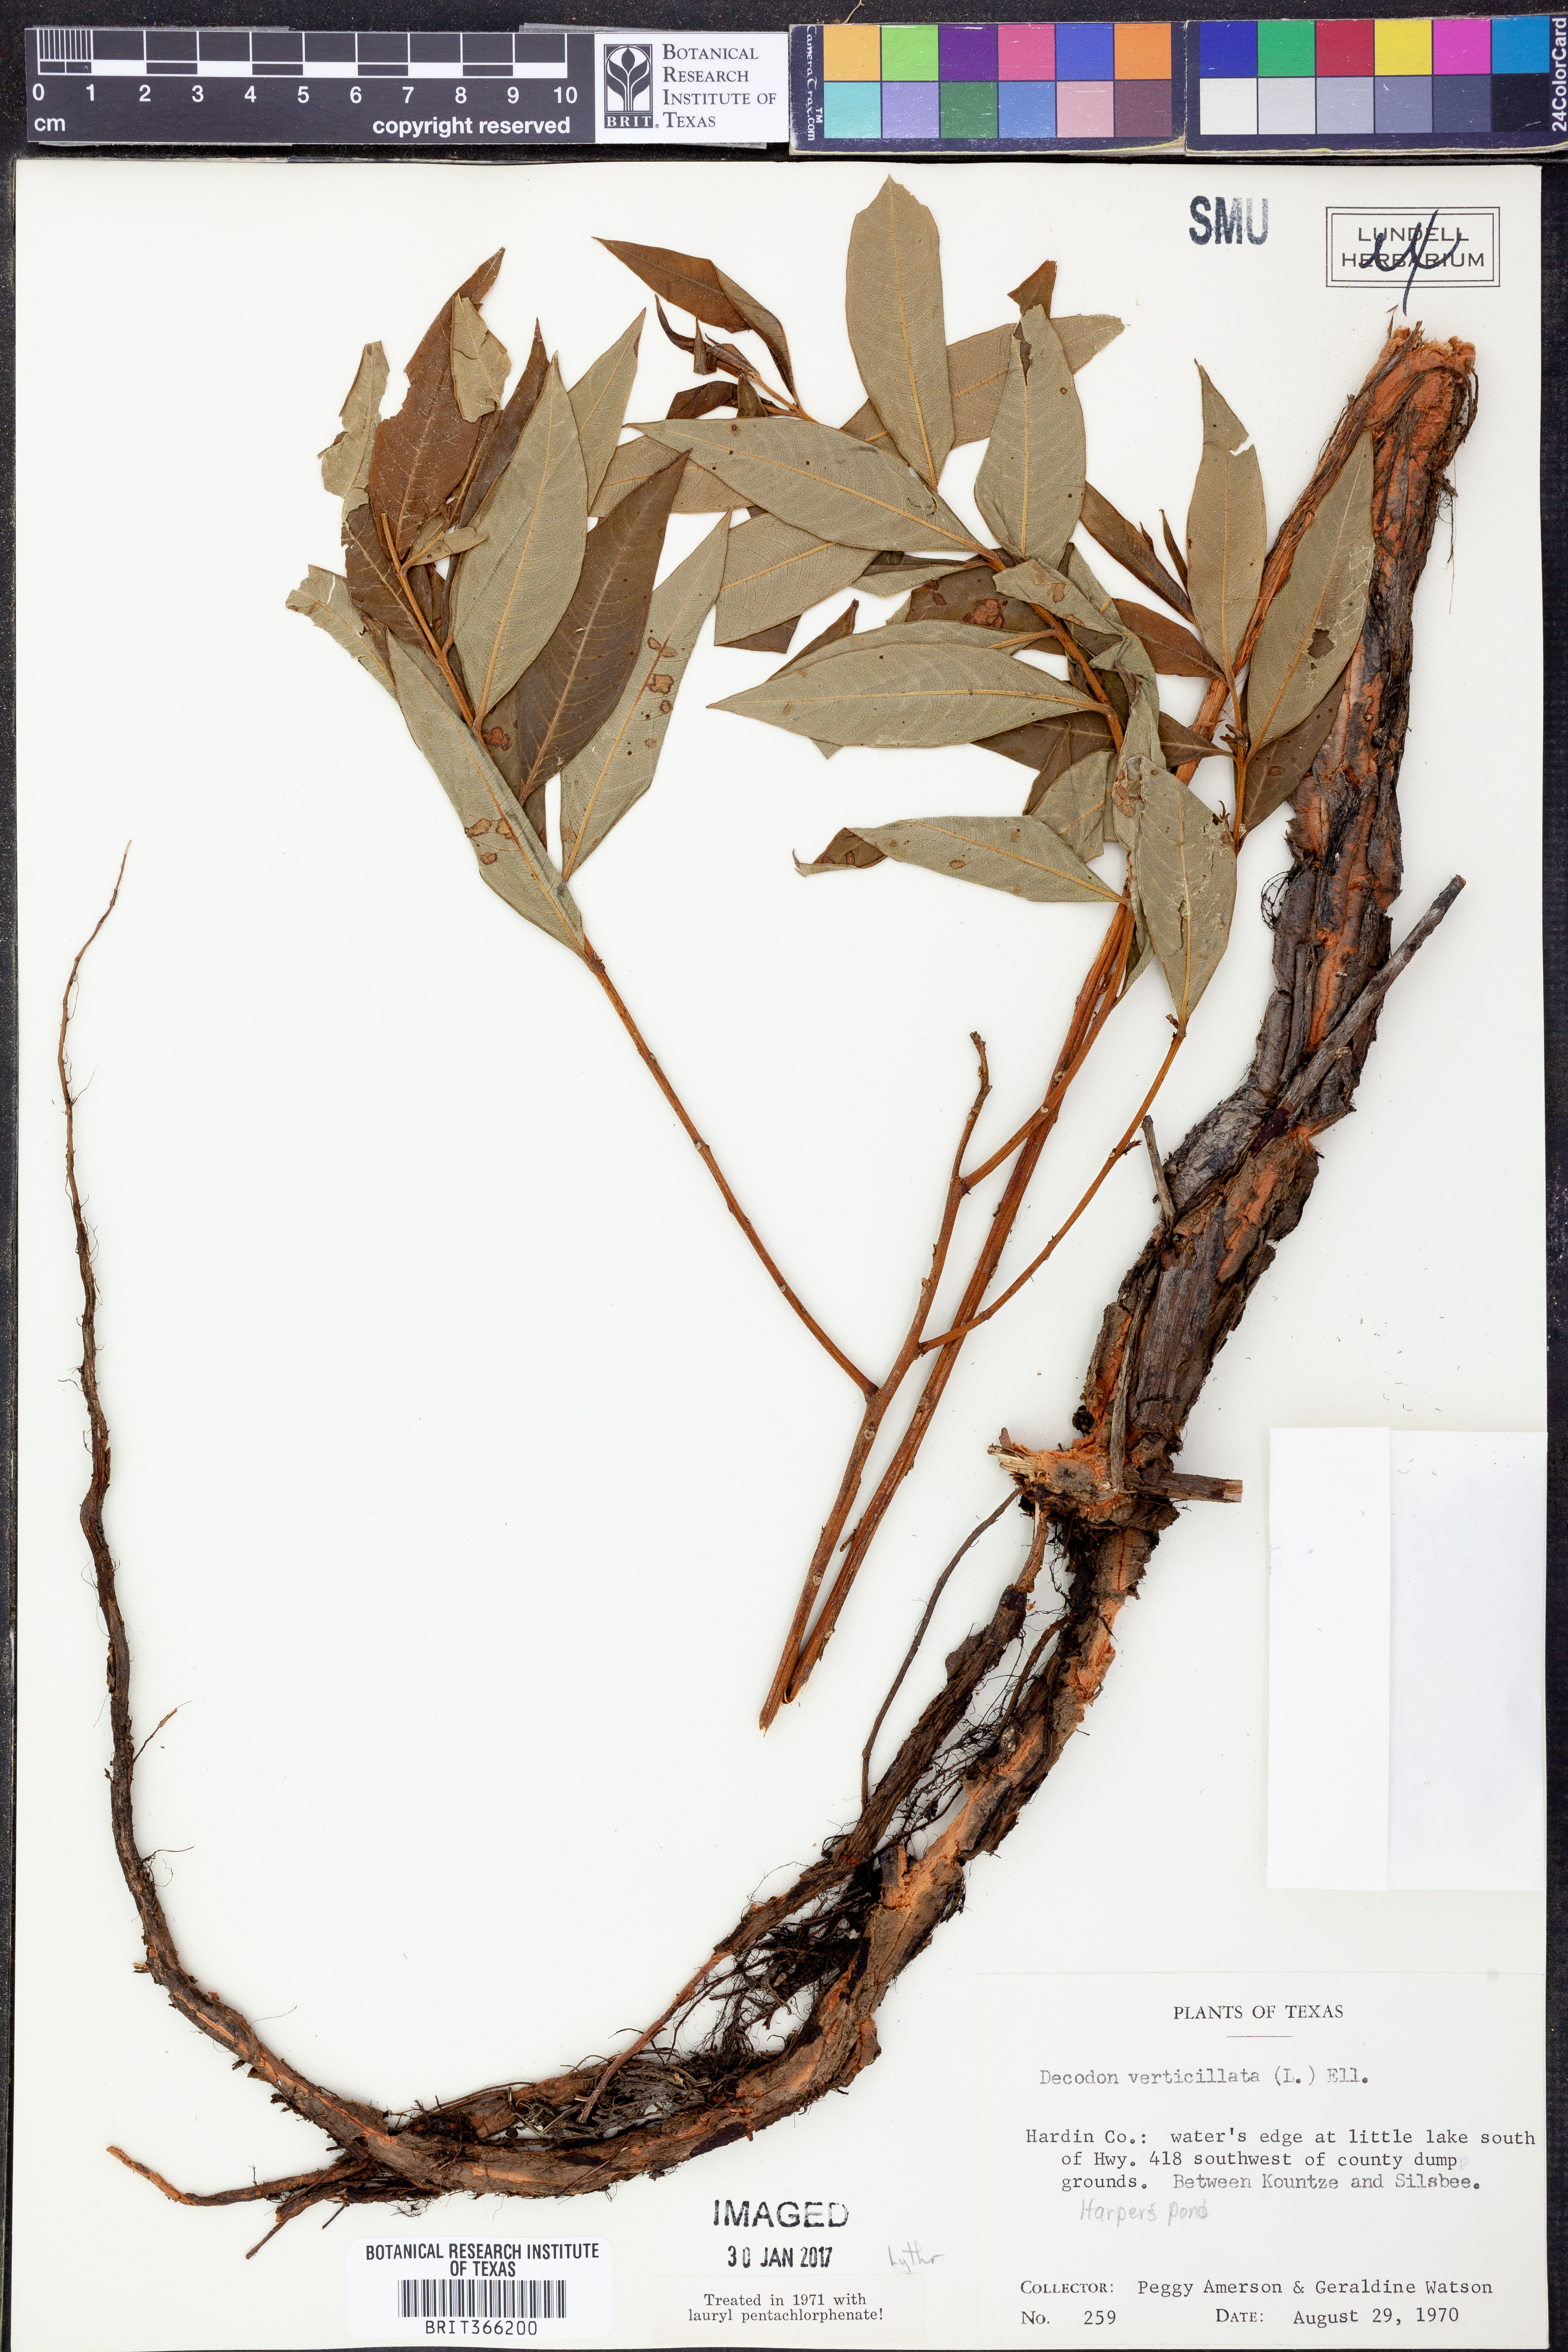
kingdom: Plantae
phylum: Tracheophyta
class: Magnoliopsida
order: Myrtales
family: Lythraceae
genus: Decodon
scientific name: Decodon verticillatus
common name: Hairy swamp loosestrife
